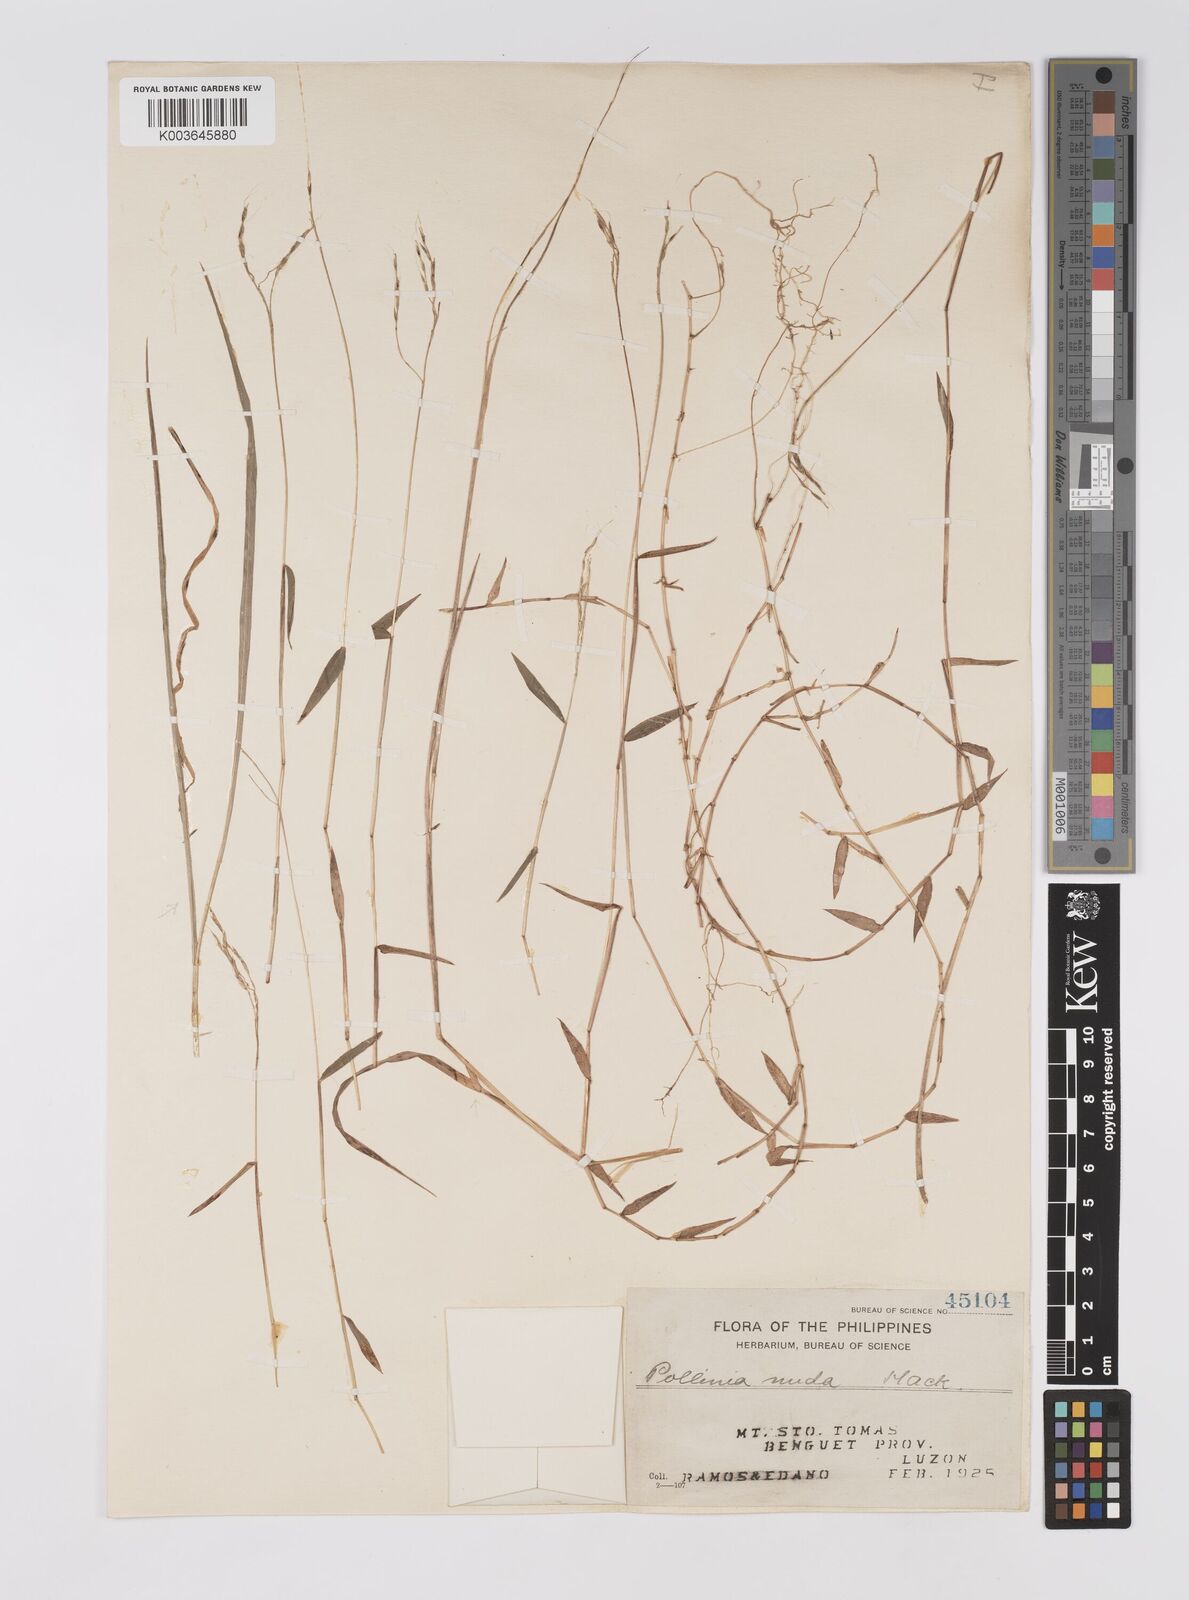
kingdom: Plantae
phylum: Tracheophyta
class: Liliopsida
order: Poales
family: Poaceae
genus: Microstegium
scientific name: Microstegium nudum
